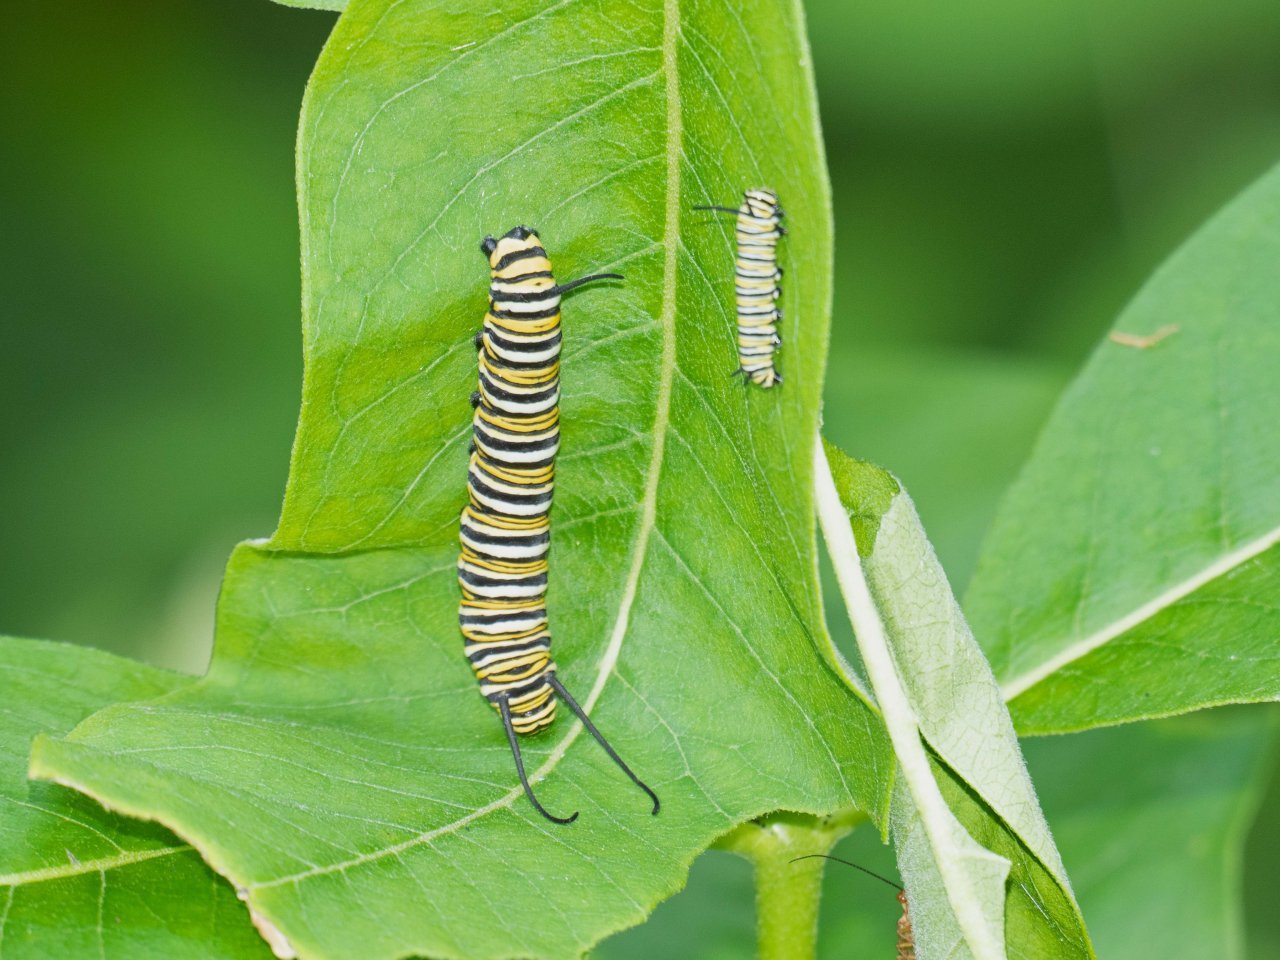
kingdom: Animalia
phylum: Arthropoda
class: Insecta
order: Lepidoptera
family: Nymphalidae
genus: Danaus
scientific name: Danaus plexippus
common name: Monarch
